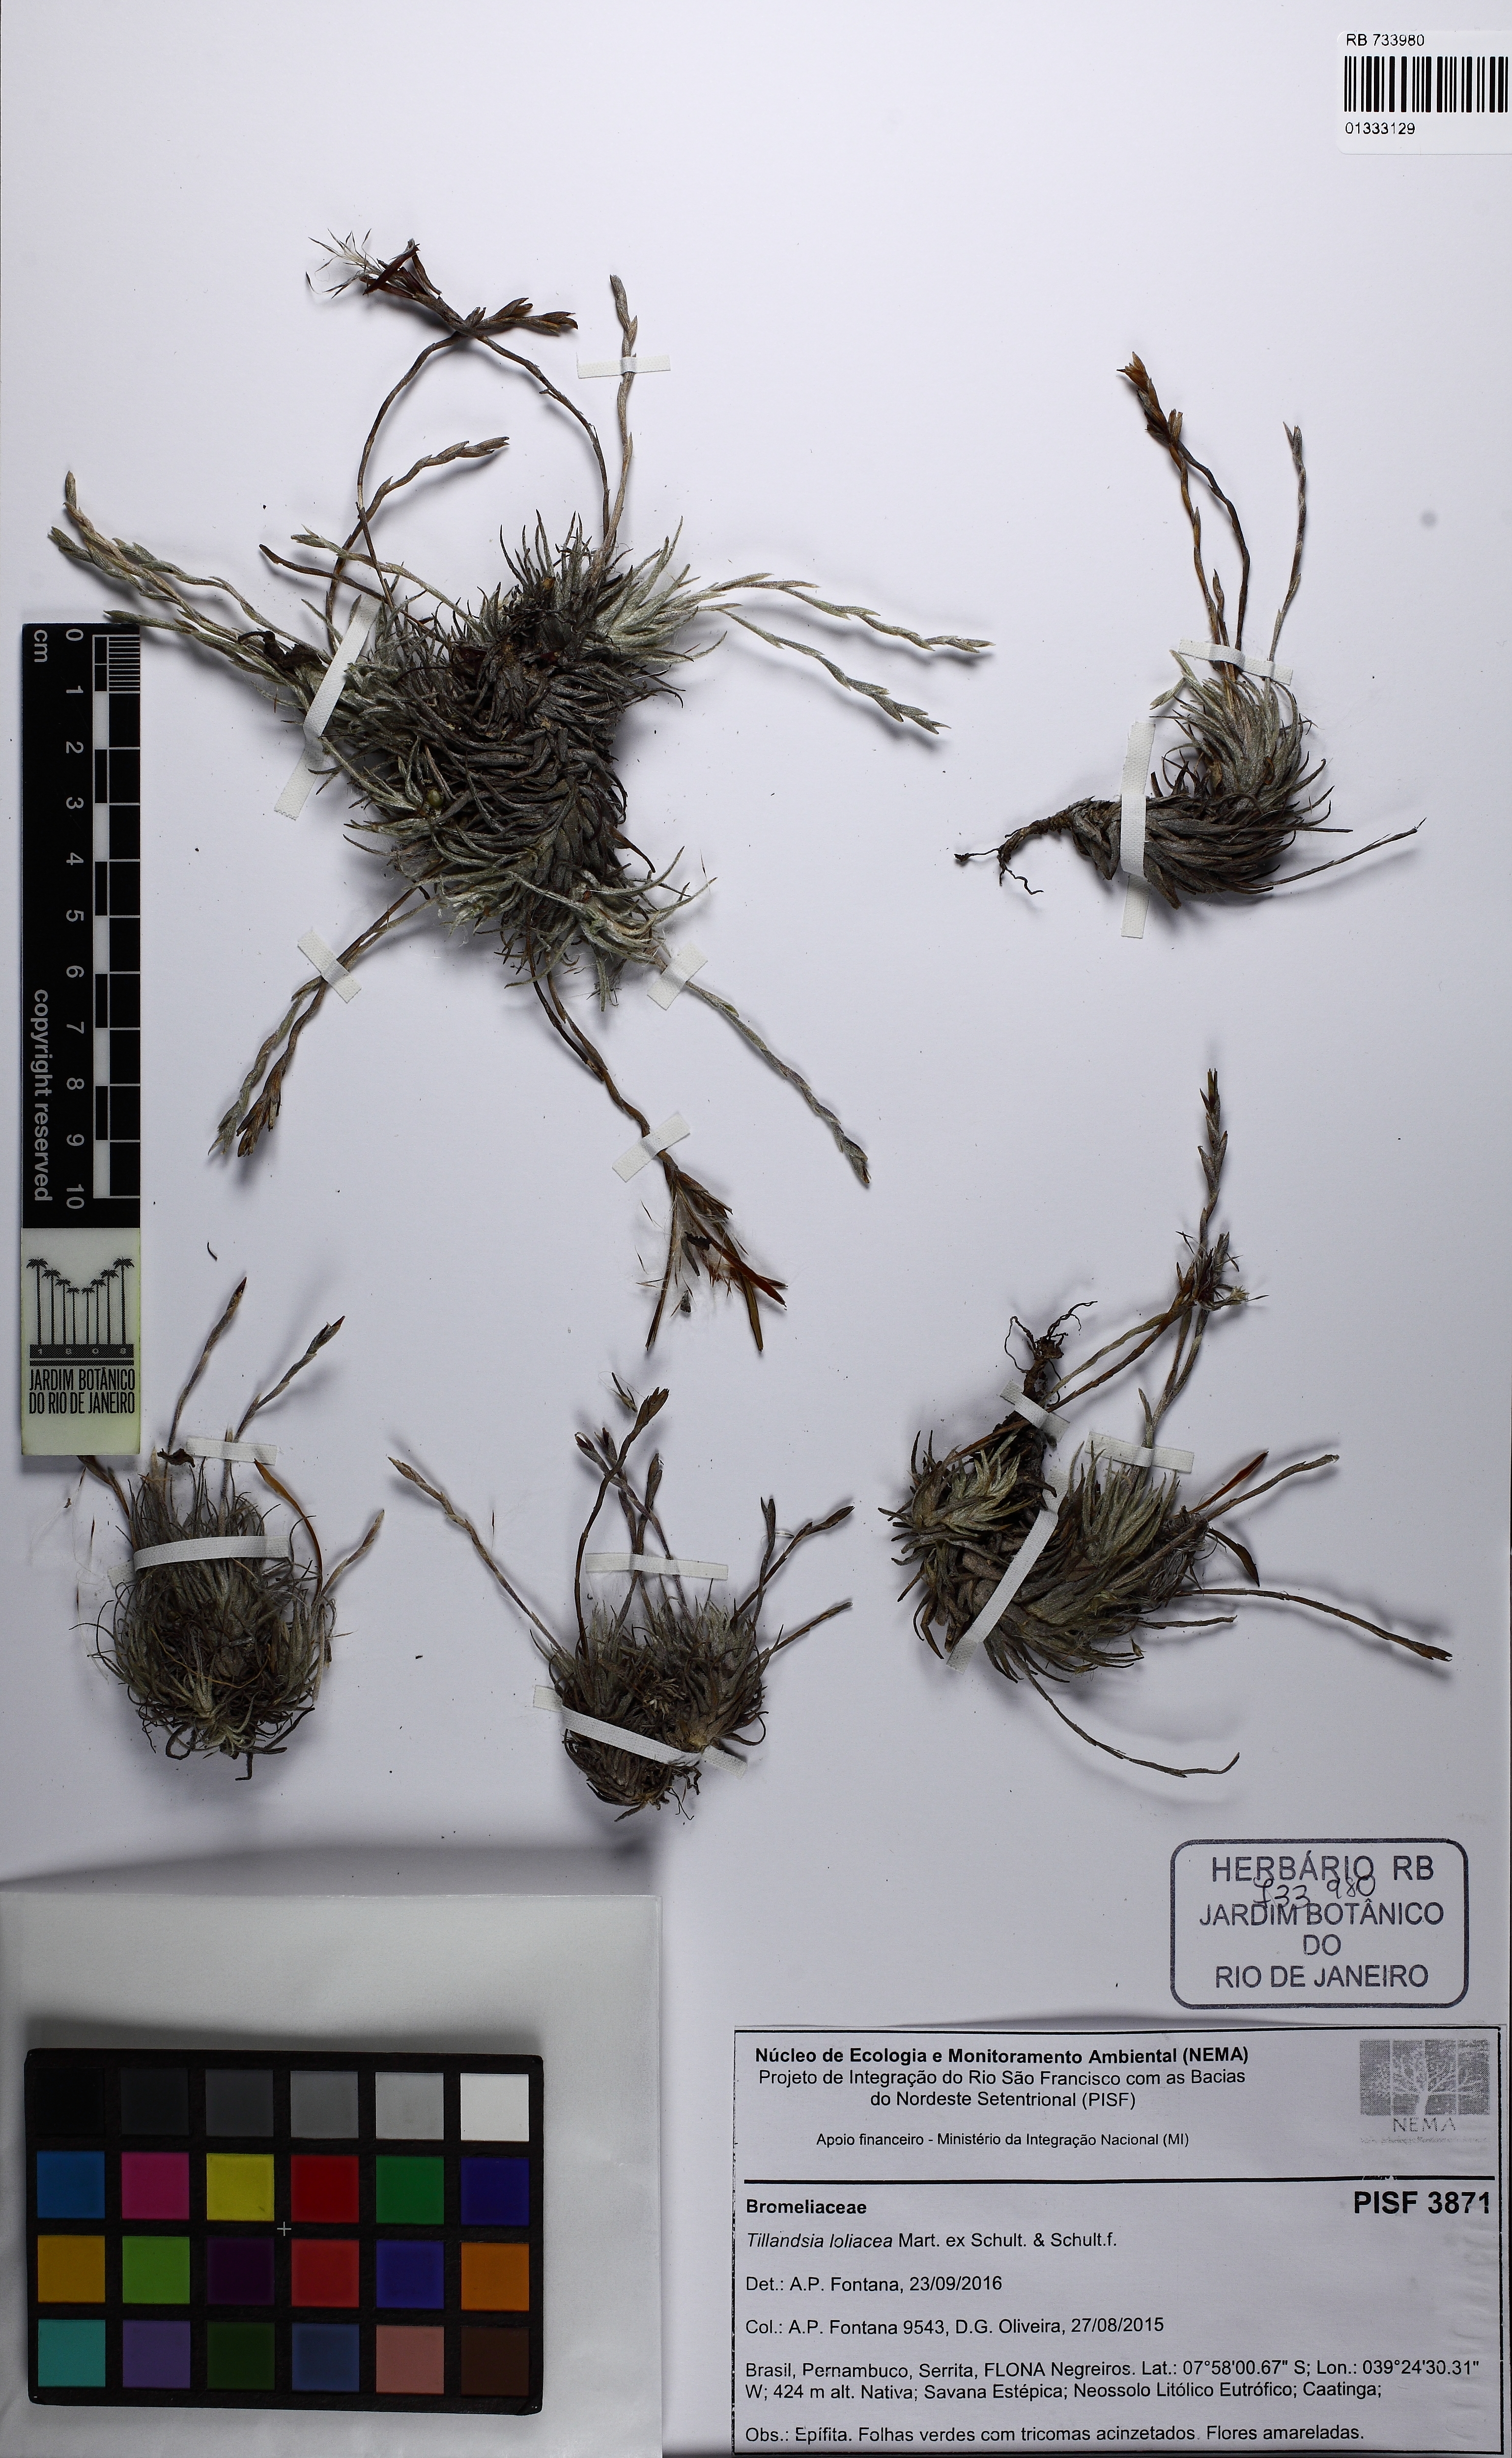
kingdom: Plantae
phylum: Tracheophyta
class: Liliopsida
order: Poales
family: Bromeliaceae
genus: Tillandsia
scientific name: Tillandsia loliacea
